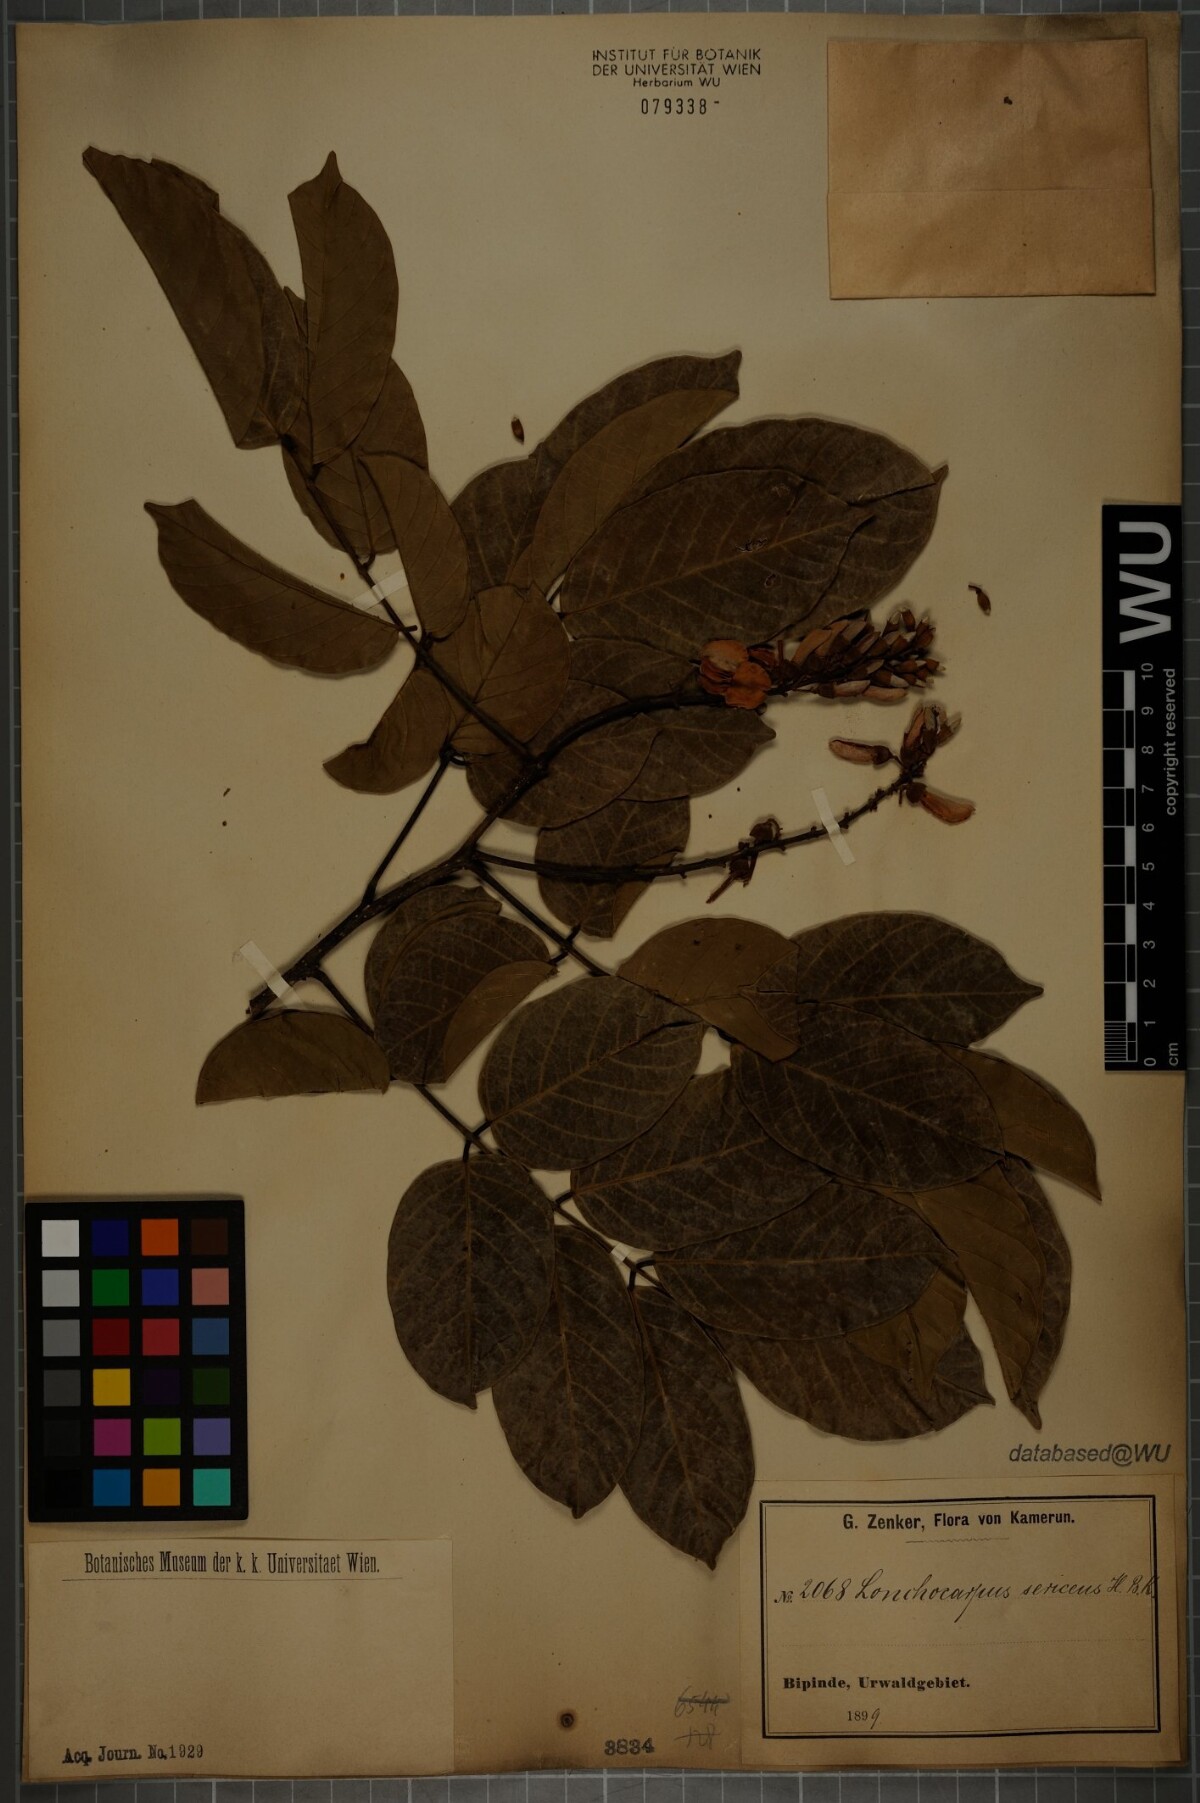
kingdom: Plantae
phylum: Tracheophyta
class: Magnoliopsida
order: Fabales
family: Fabaceae
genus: Lonchocarpus
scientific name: Lonchocarpus sericeus
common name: Savonette
